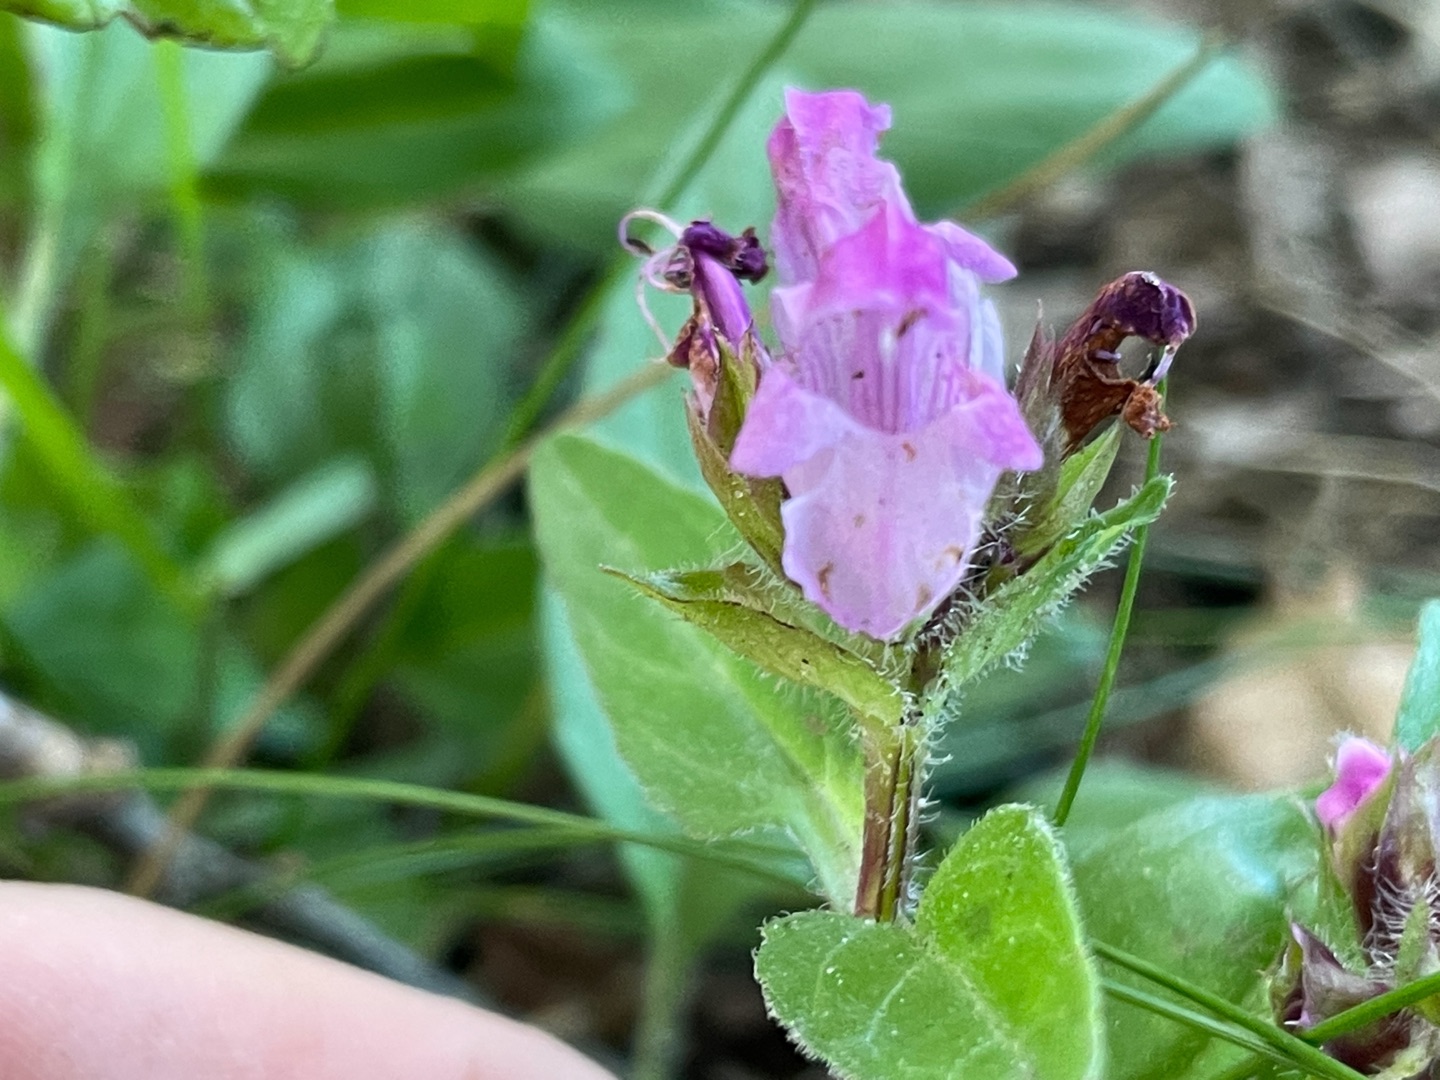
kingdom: Plantae
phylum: Tracheophyta
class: Magnoliopsida
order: Lamiales
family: Lamiaceae
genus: Prunella
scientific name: Prunella grandiflora
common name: Storblomstret brunelle
